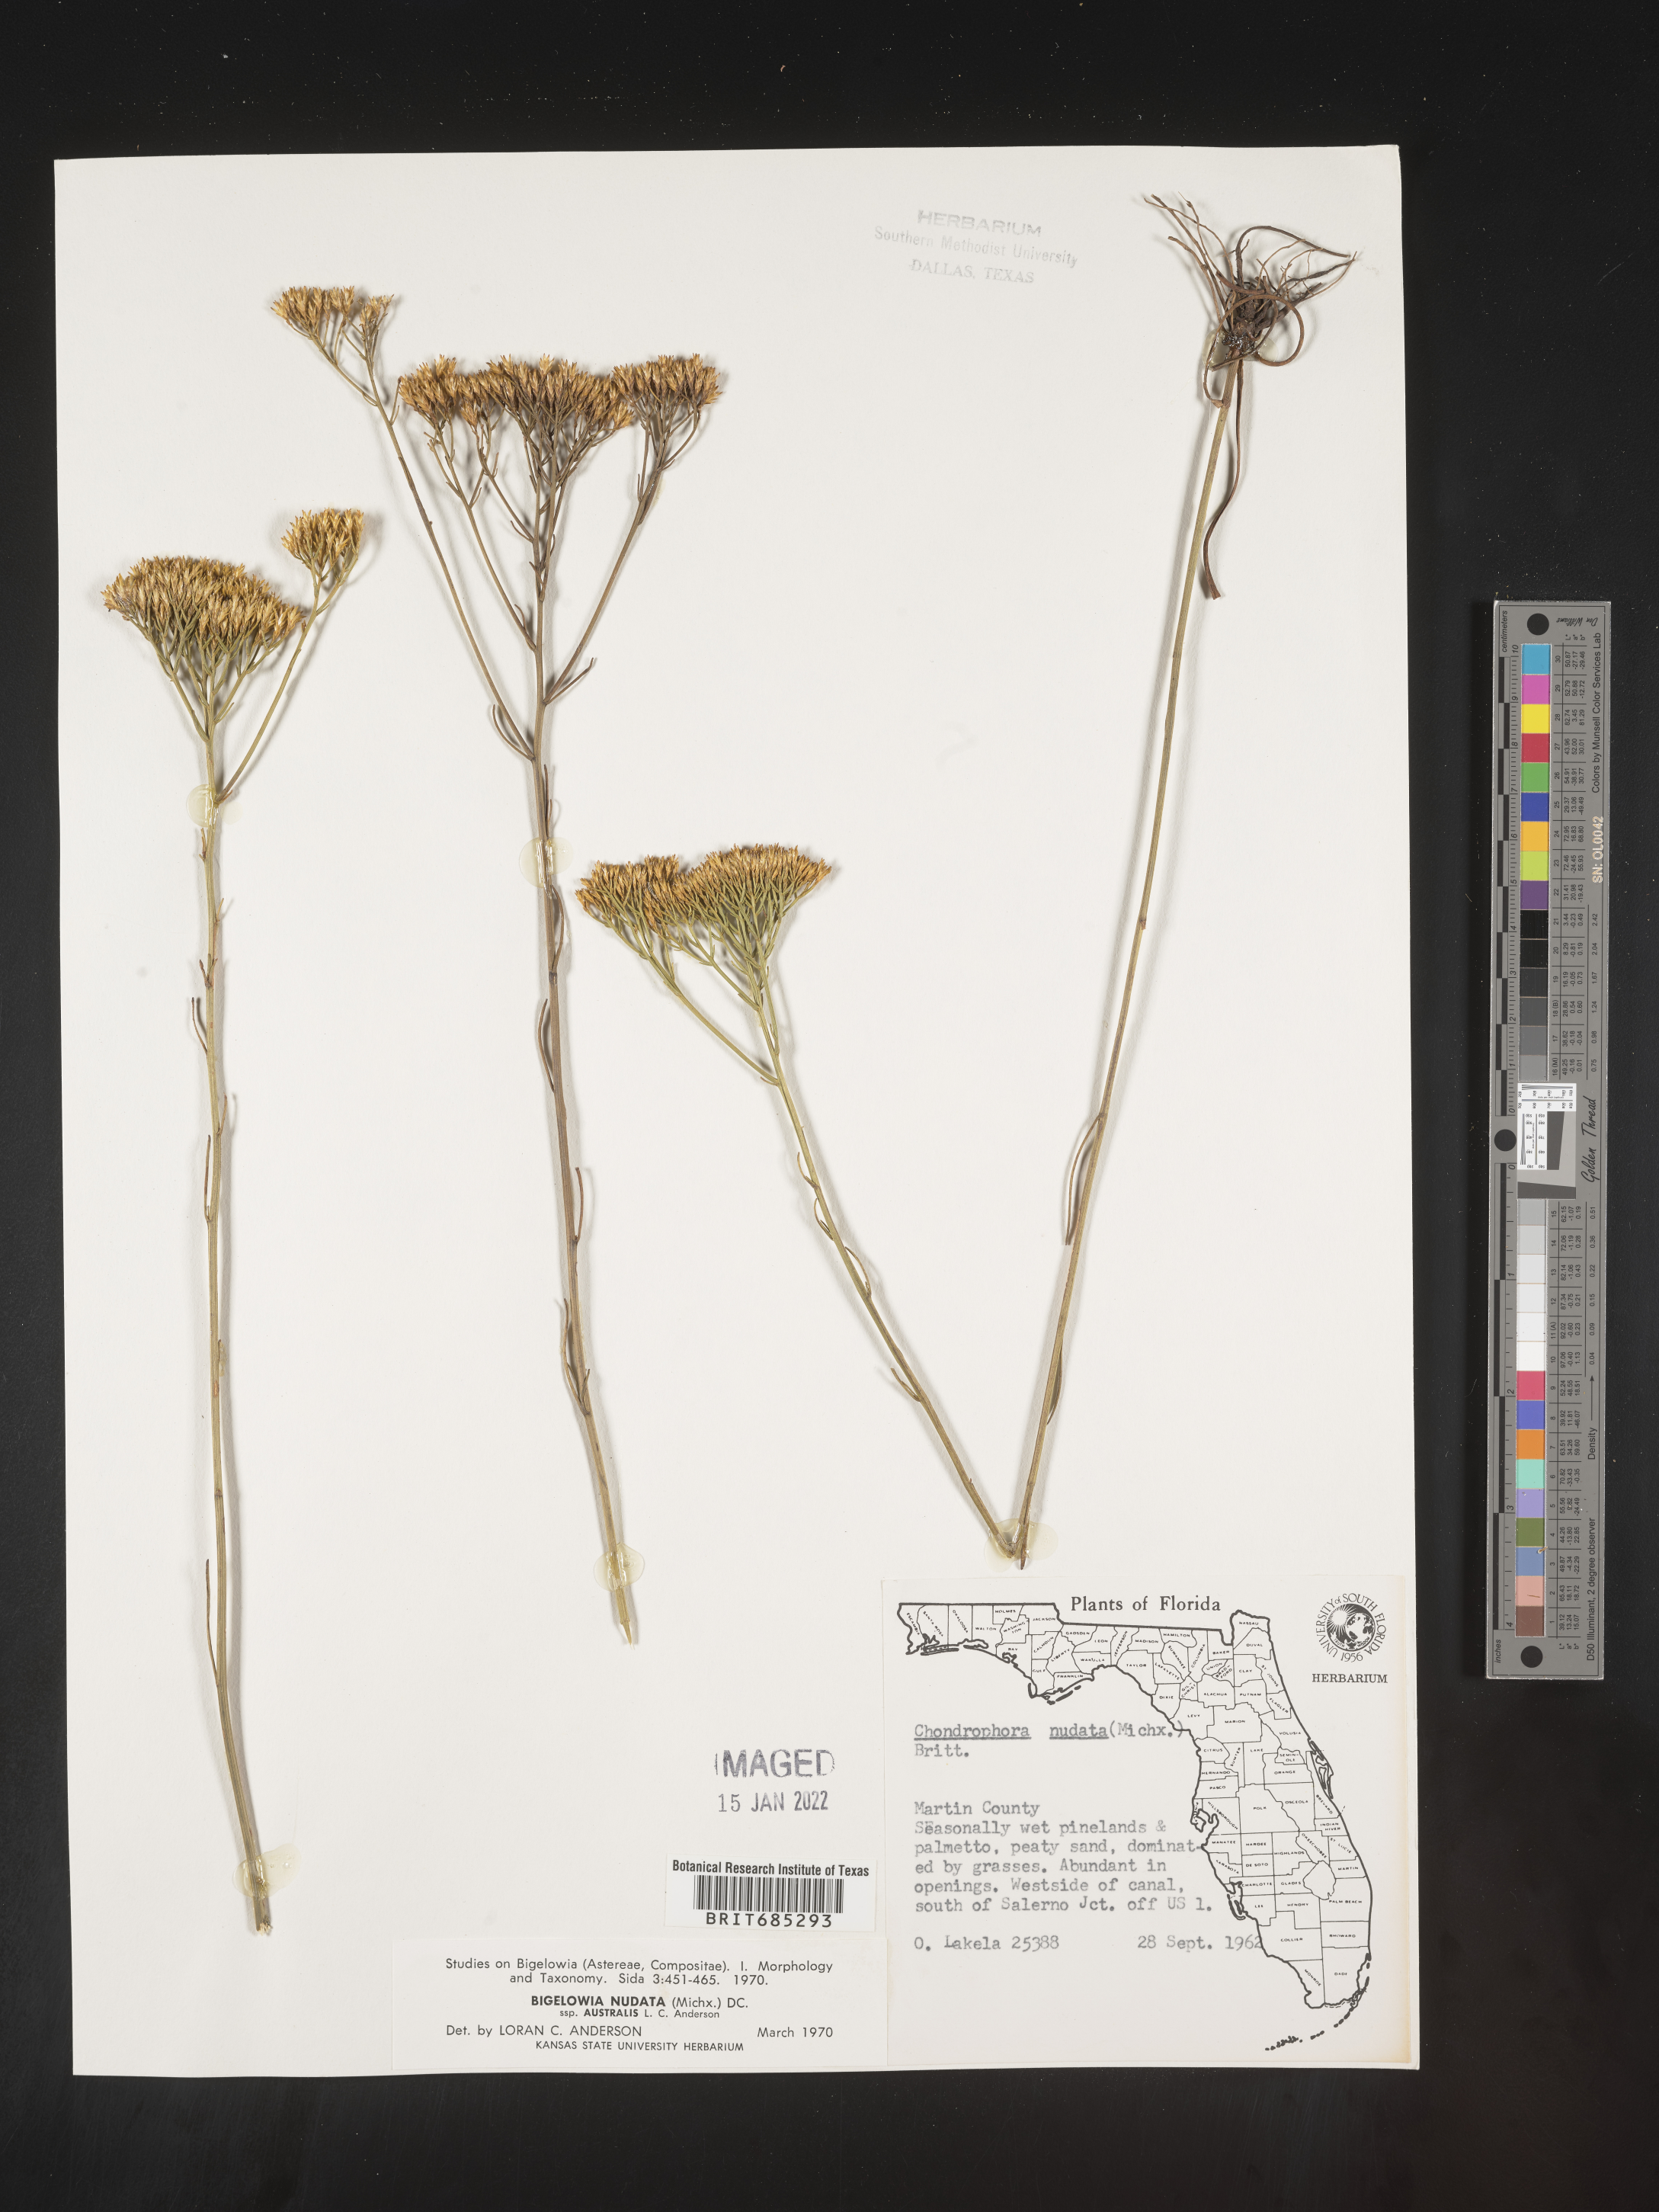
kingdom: Plantae
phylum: Tracheophyta
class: Magnoliopsida
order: Asterales
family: Asteraceae
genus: Bigelowia
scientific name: Bigelowia nudata
